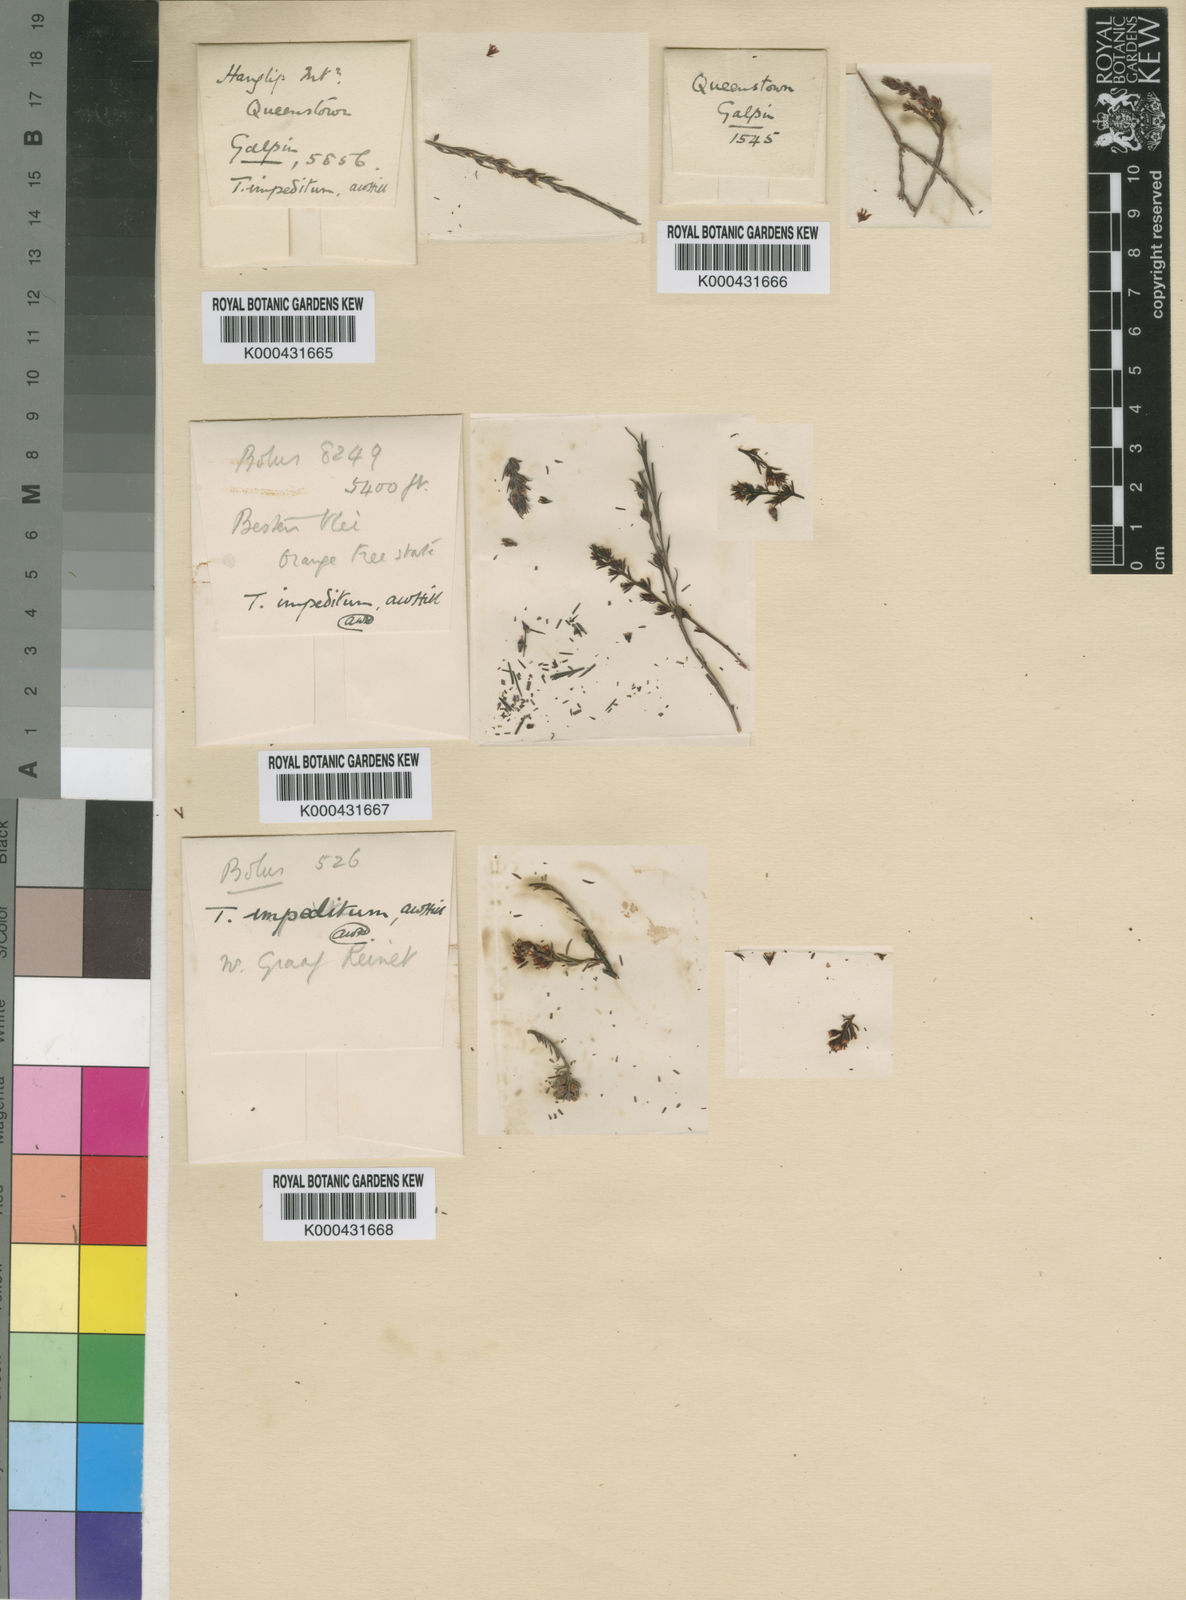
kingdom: Plantae
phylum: Tracheophyta
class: Magnoliopsida
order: Santalales
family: Thesiaceae
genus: Thesium
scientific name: Thesium impeditum
